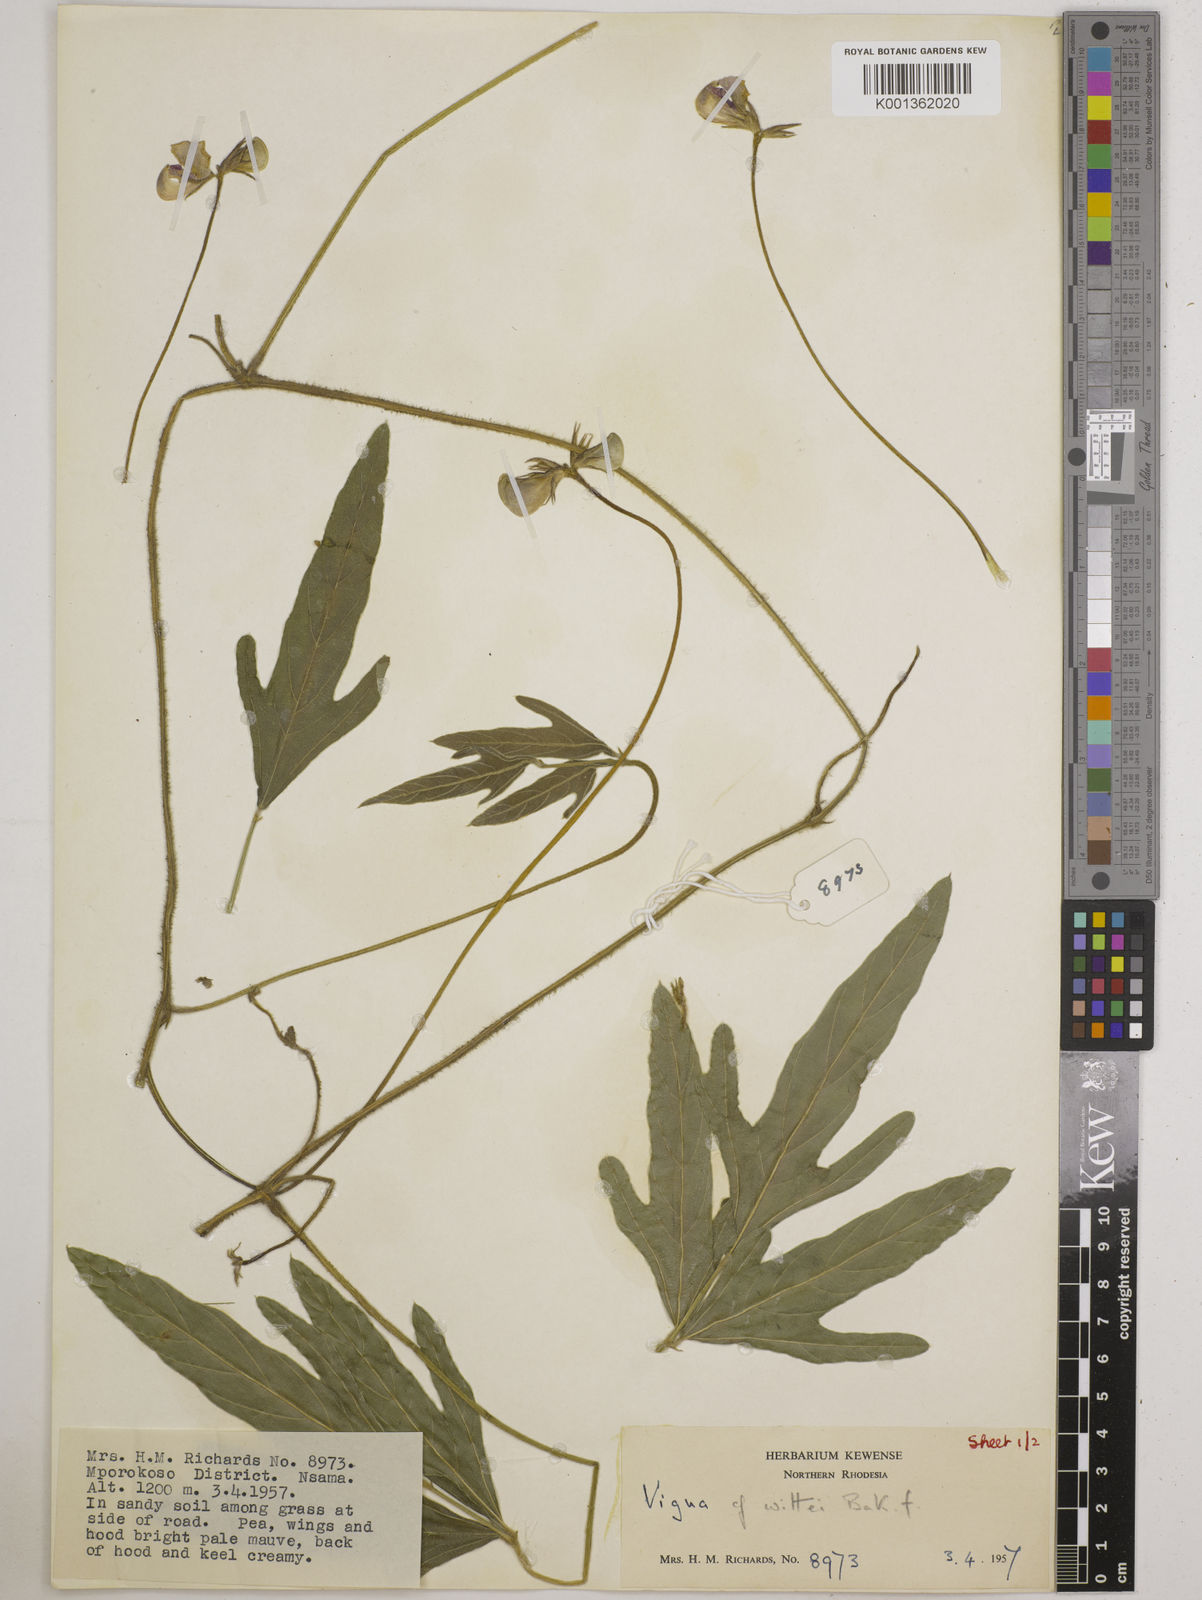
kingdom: Plantae
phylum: Tracheophyta
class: Magnoliopsida
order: Fabales
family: Fabaceae
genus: Vigna
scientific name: Vigna radicans
